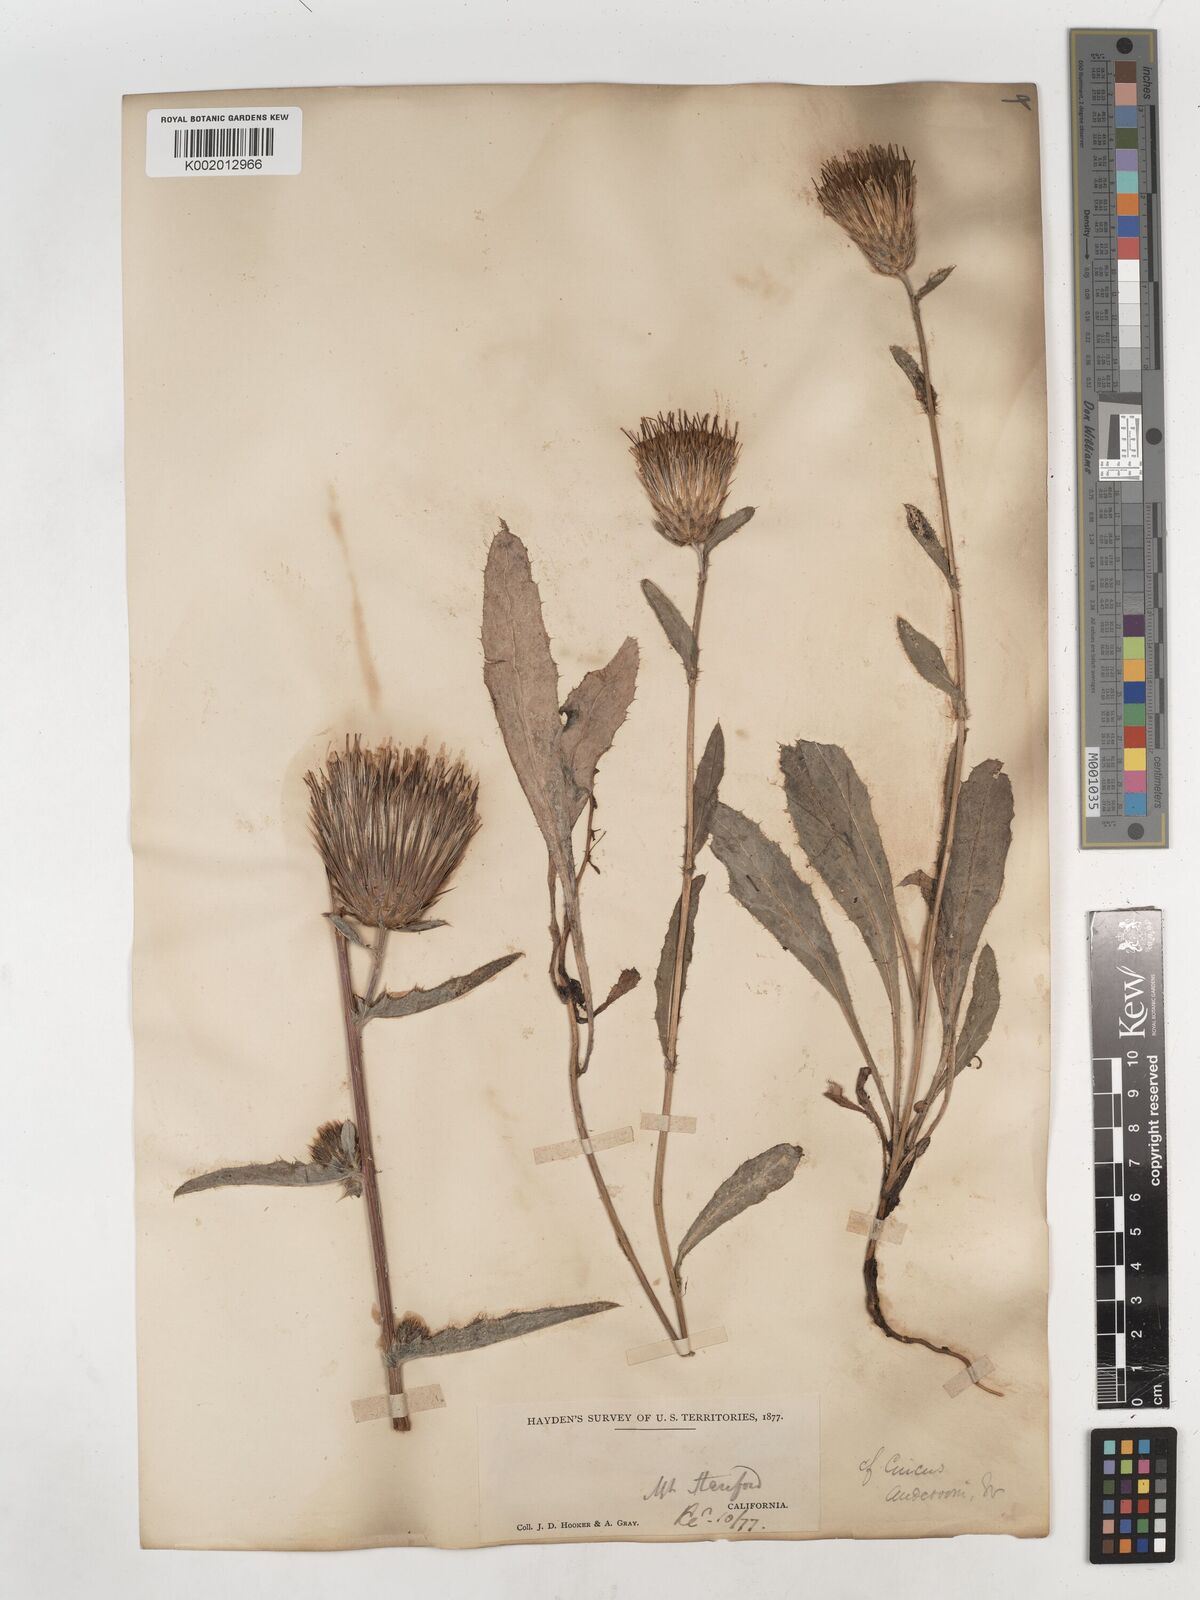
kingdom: Plantae
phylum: Tracheophyta
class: Magnoliopsida
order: Asterales
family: Asteraceae
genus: Cirsium
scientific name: Cirsium
